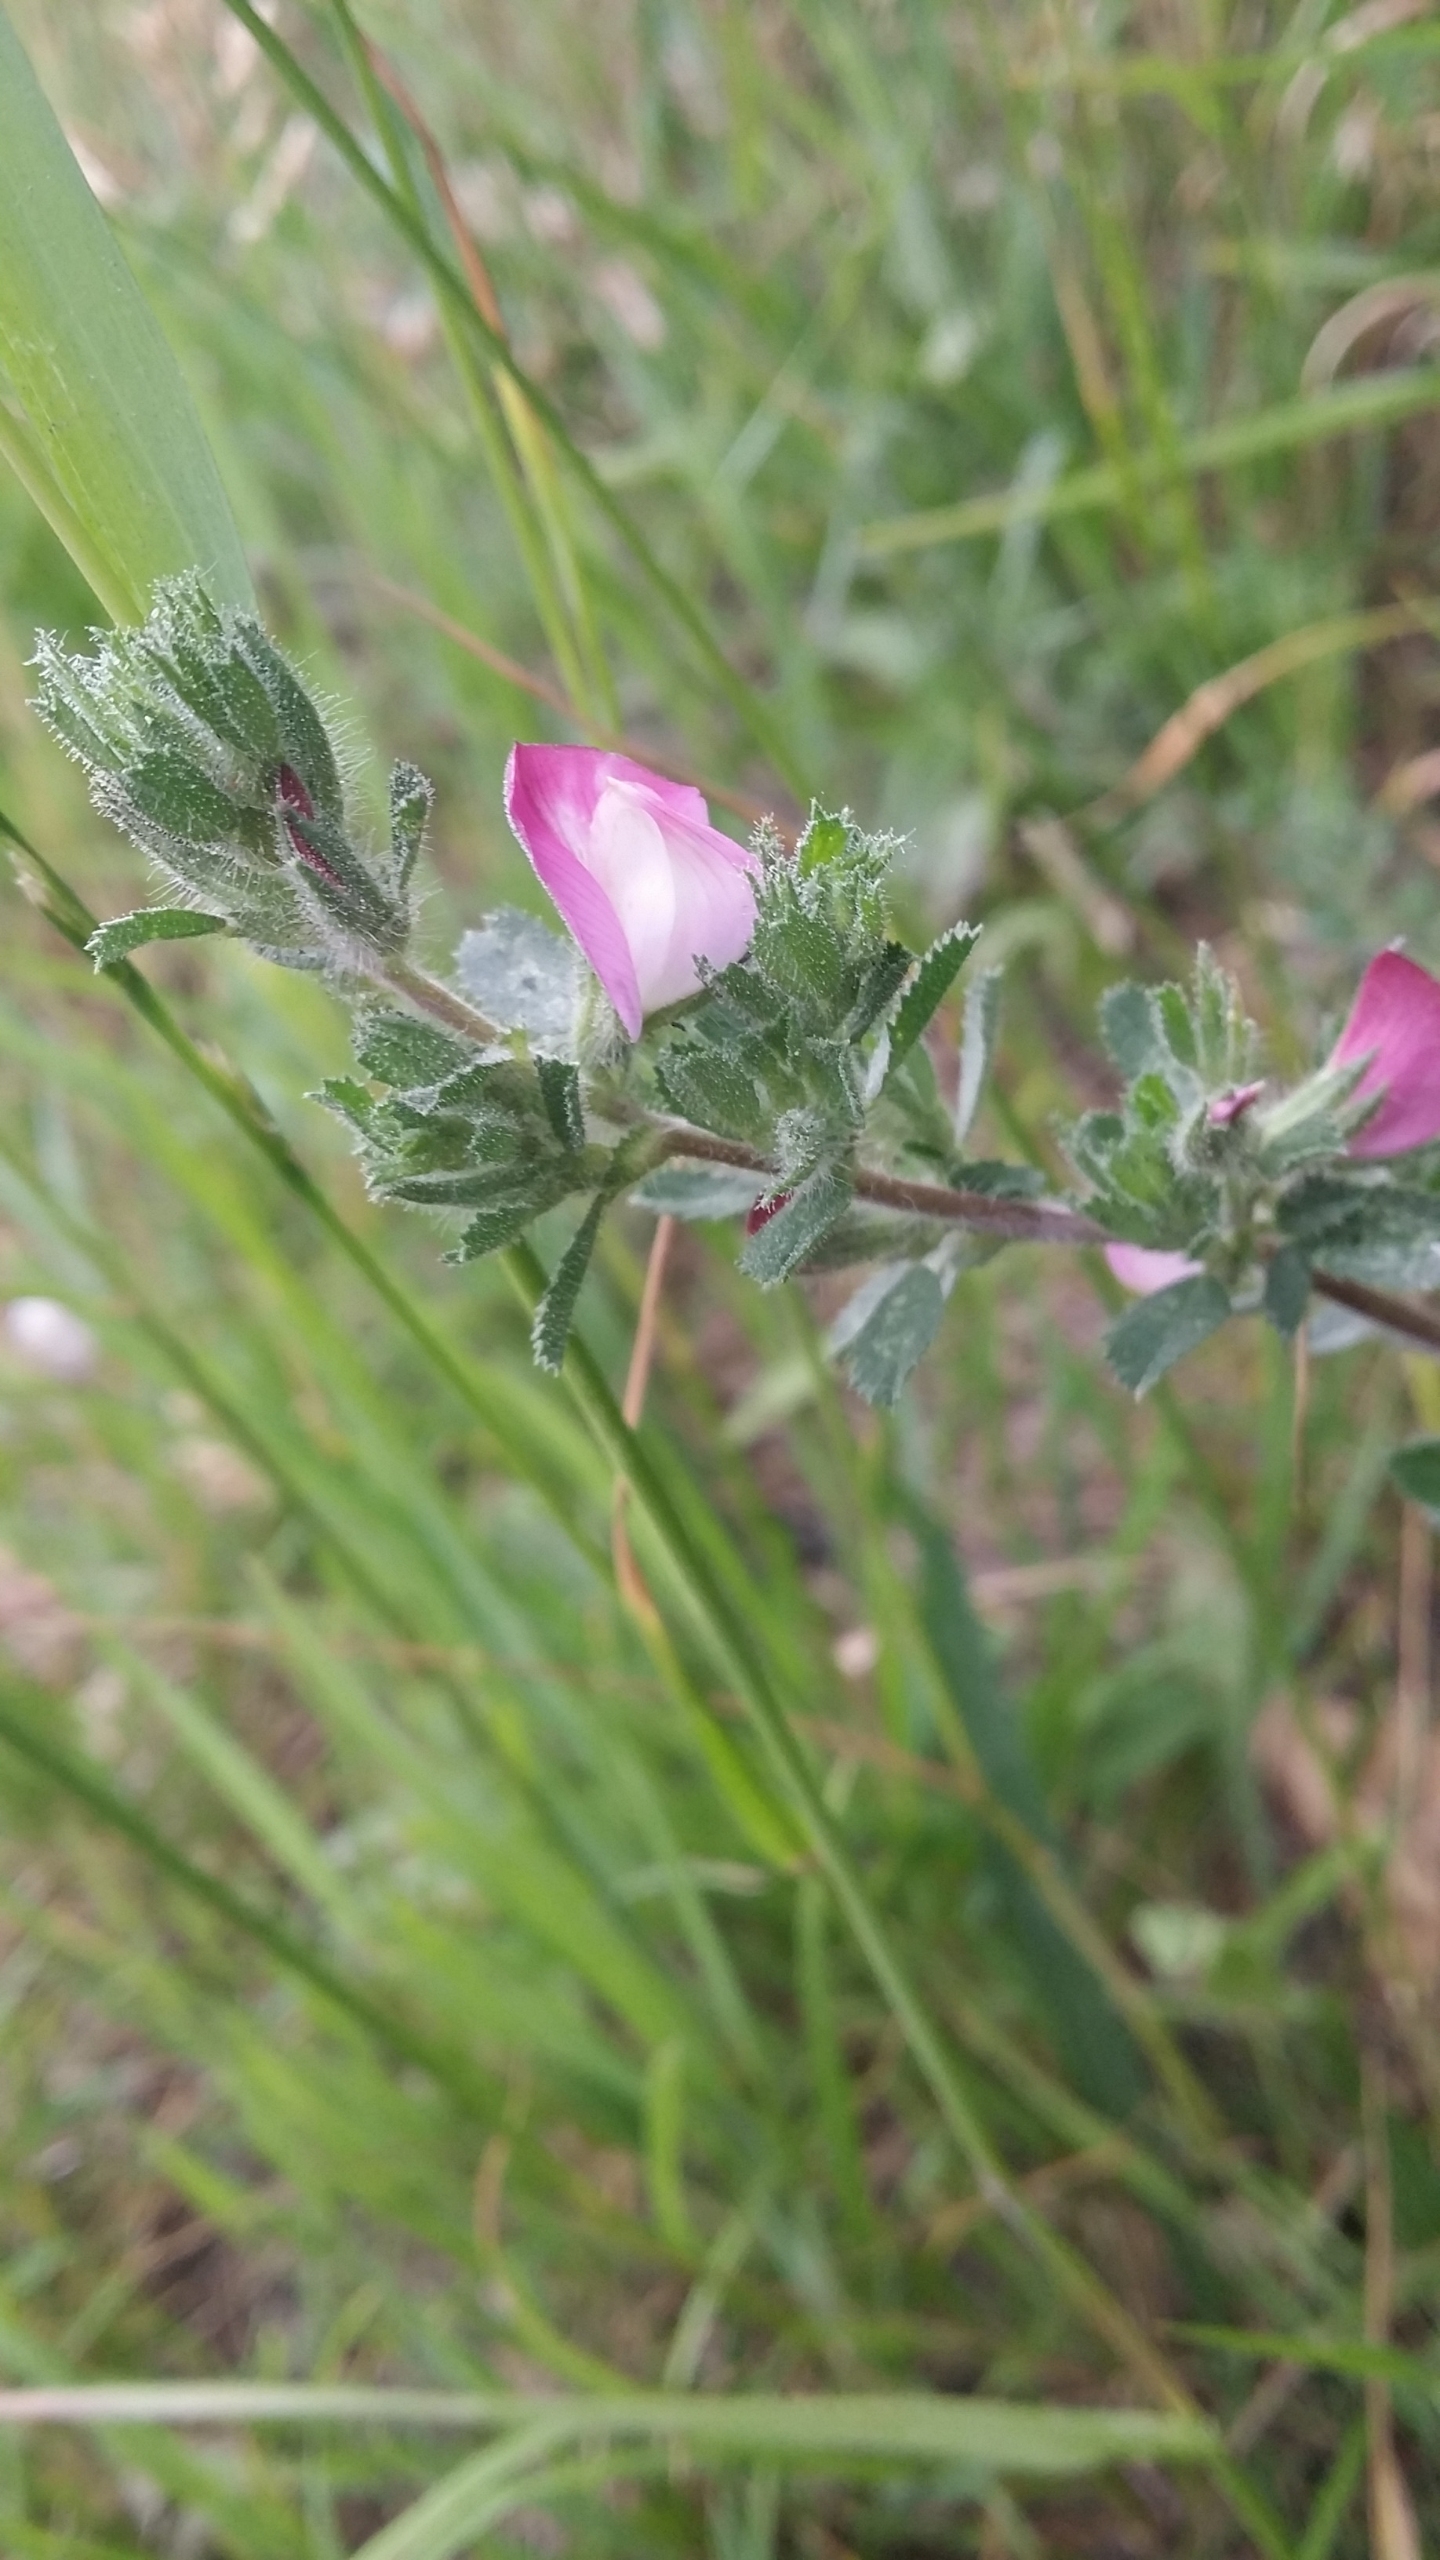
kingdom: Plantae
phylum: Tracheophyta
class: Magnoliopsida
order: Fabales
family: Fabaceae
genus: Ononis
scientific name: Ononis spinosa
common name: Mark-krageklo
